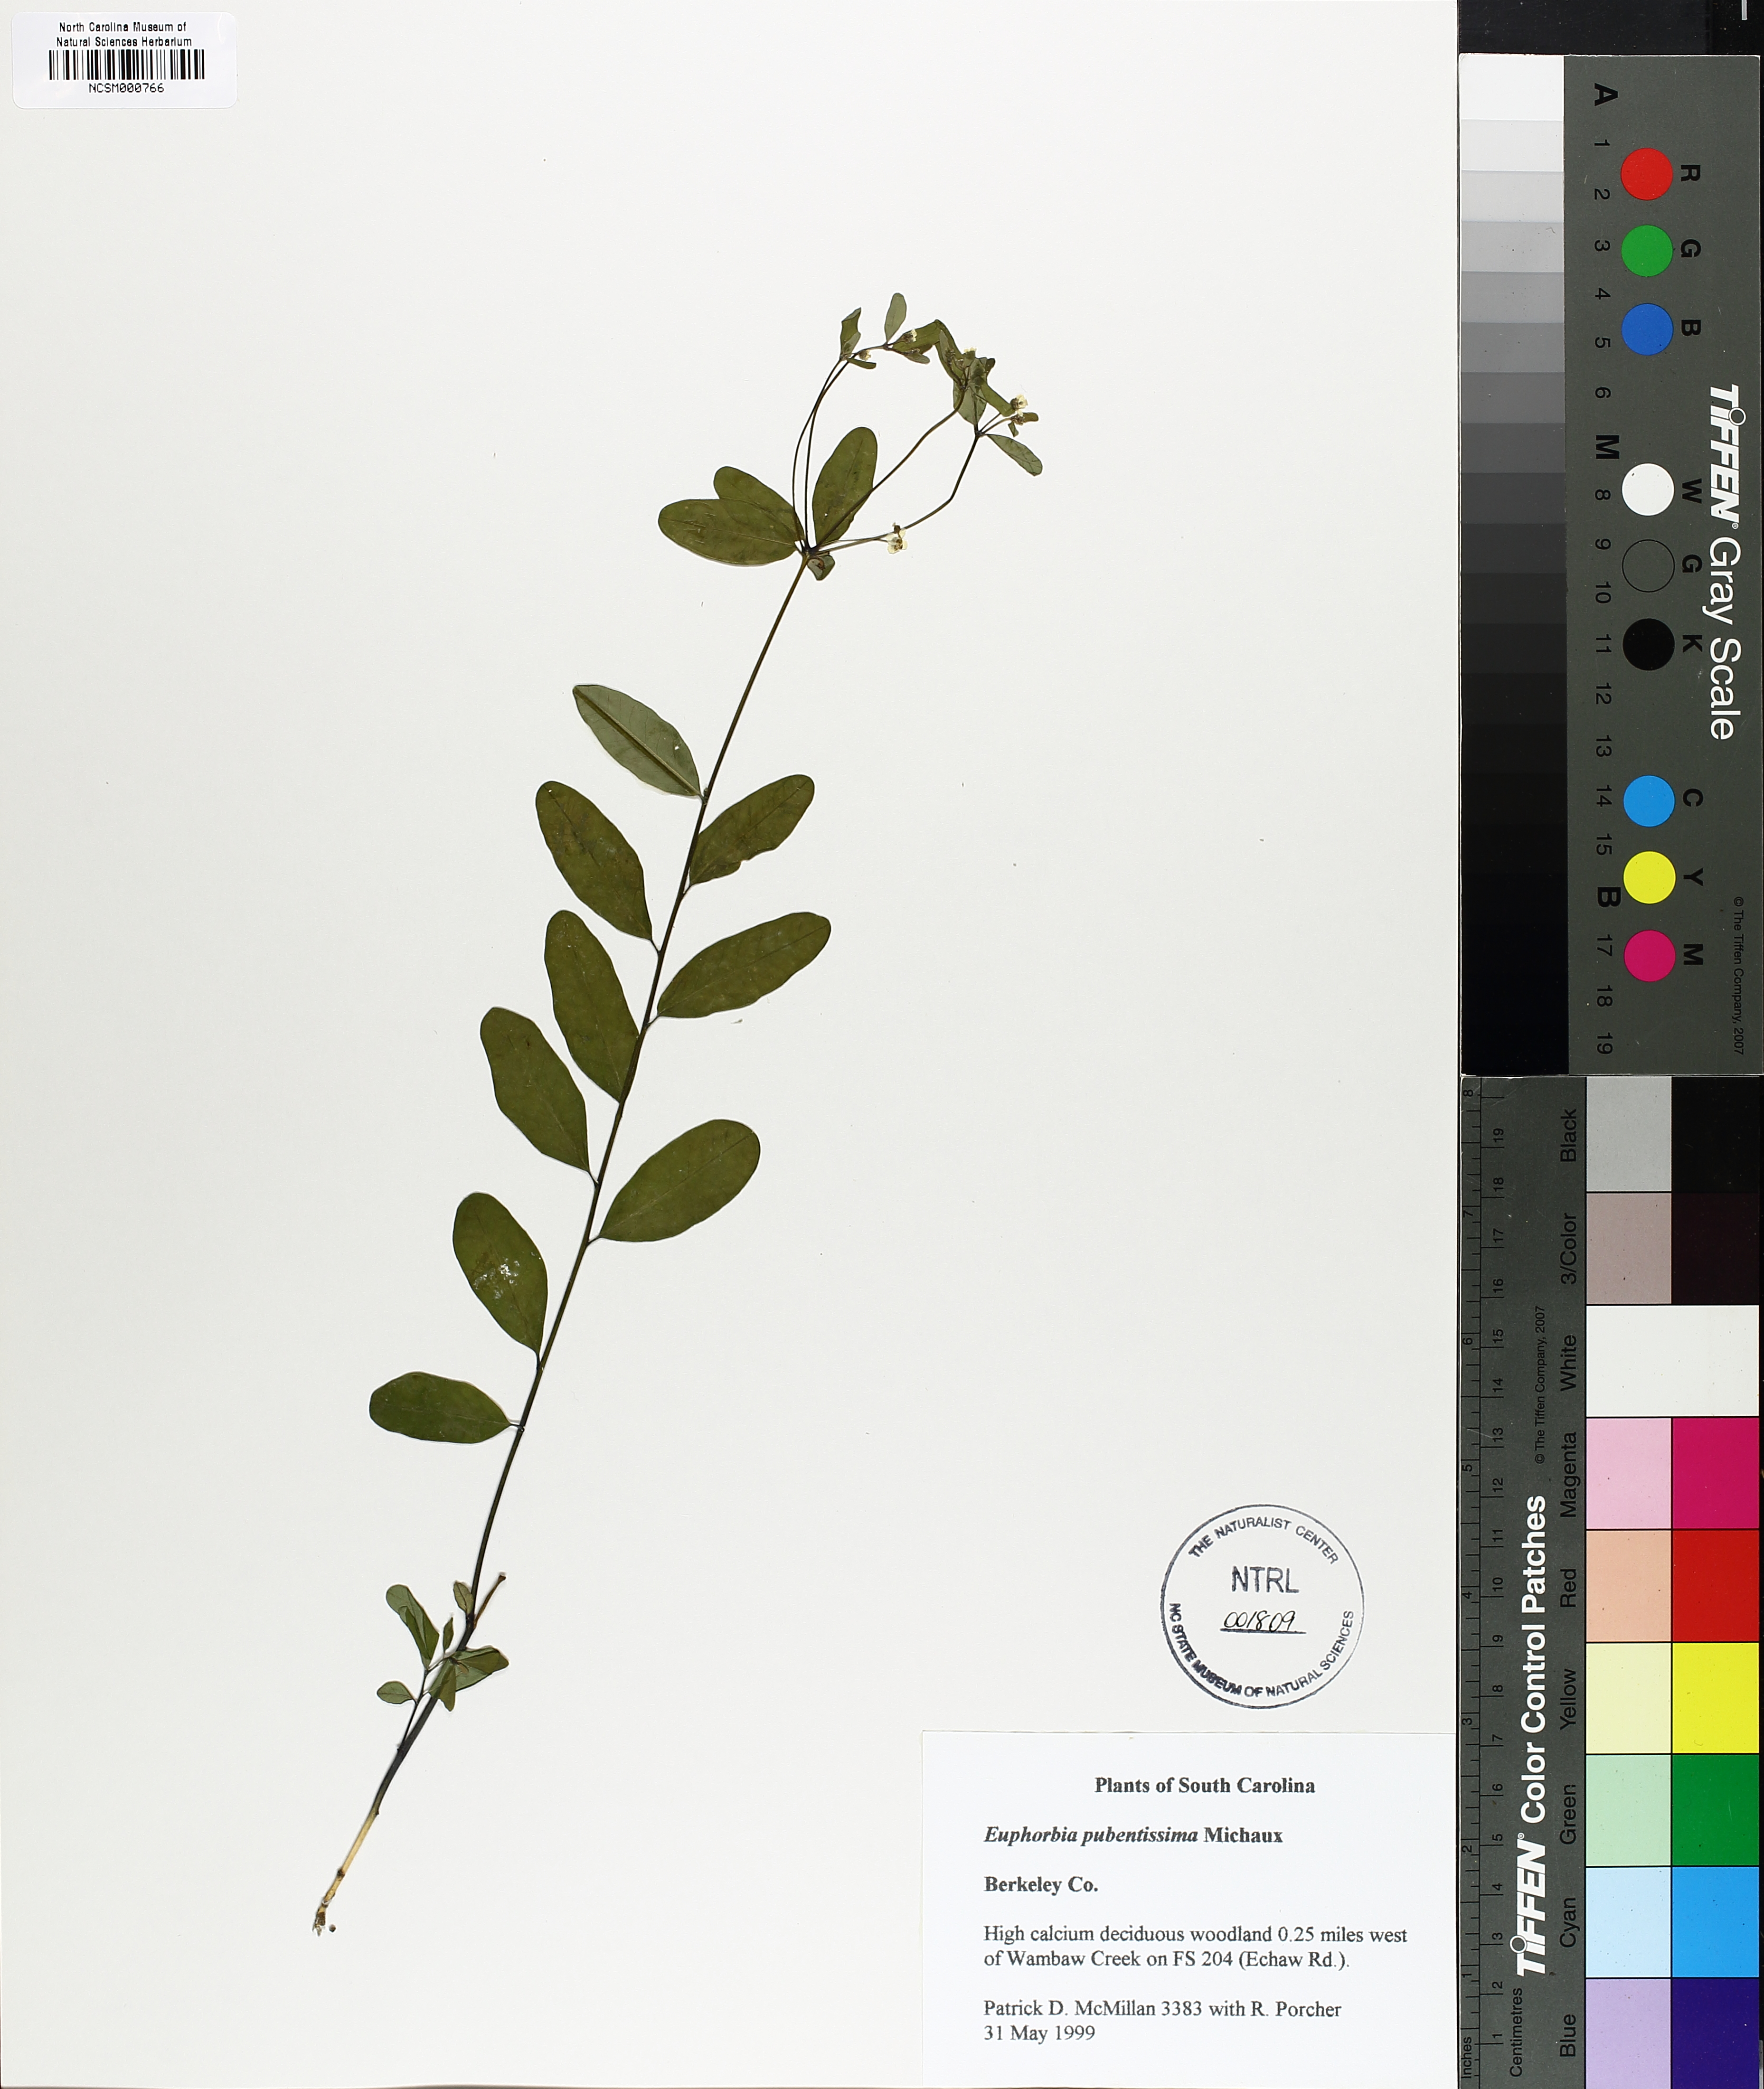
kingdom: Plantae
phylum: Tracheophyta
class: Magnoliopsida
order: Malpighiales
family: Euphorbiaceae
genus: Euphorbia
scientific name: Euphorbia pubentissima
